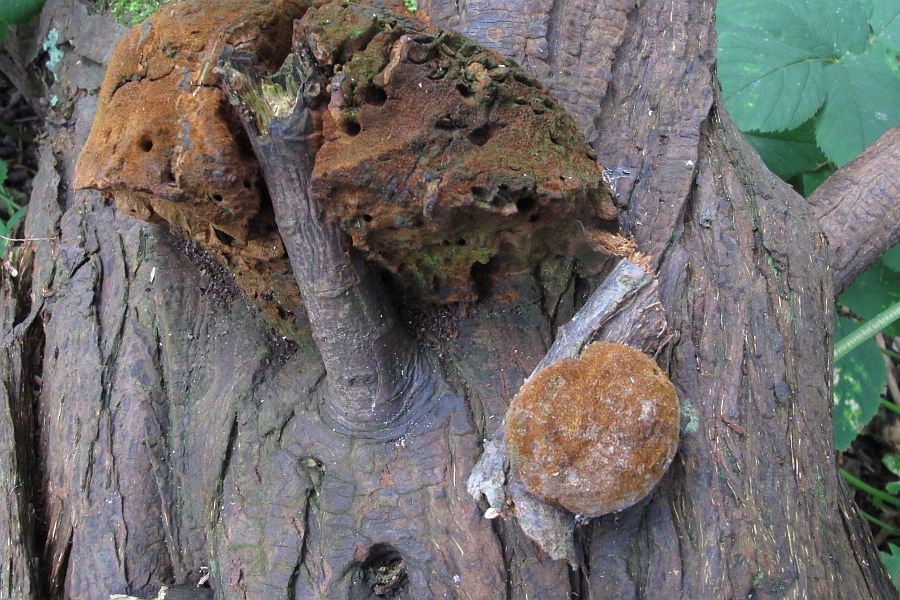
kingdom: Fungi
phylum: Basidiomycota
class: Agaricomycetes
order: Hymenochaetales
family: Hymenochaetaceae
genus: Fomitiporia
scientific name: Fomitiporia hippophaeicola
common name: havtorn-ildporesvamp
